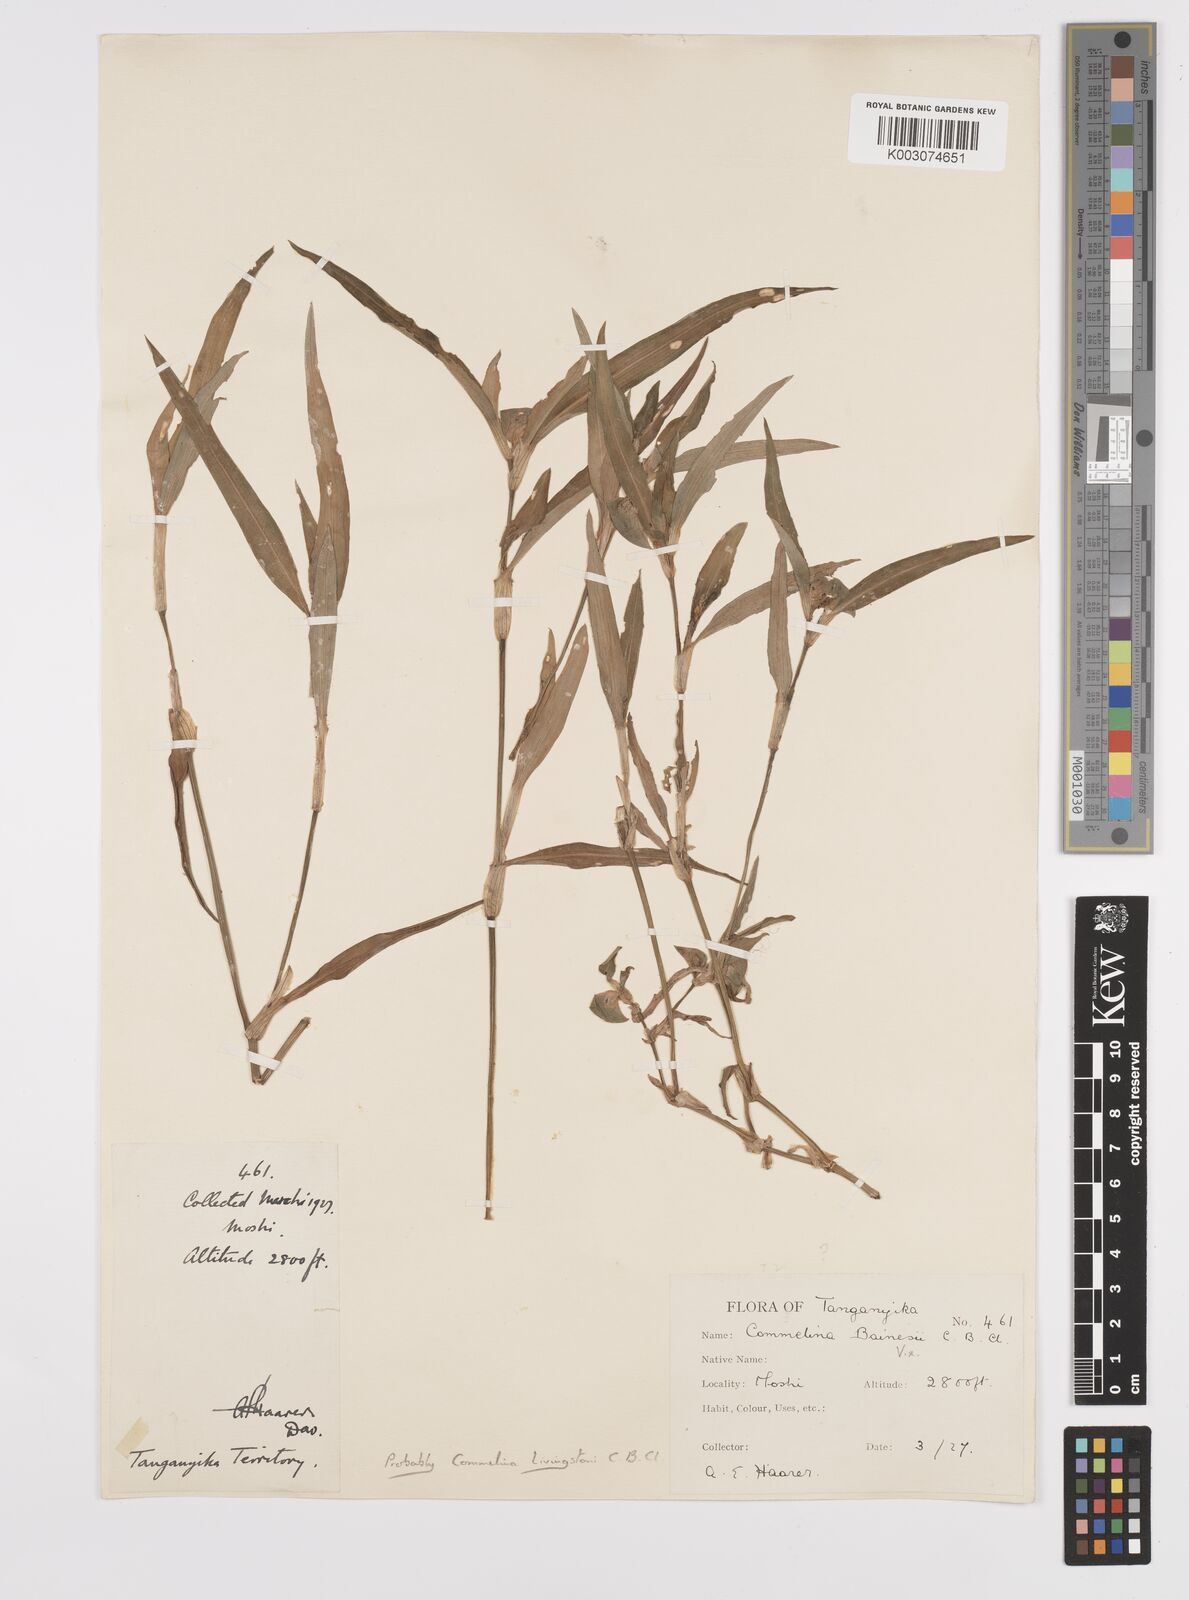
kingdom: Plantae
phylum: Tracheophyta
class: Liliopsida
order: Commelinales
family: Commelinaceae
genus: Commelina
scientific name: Commelina erecta
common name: Blousel blommetjie
